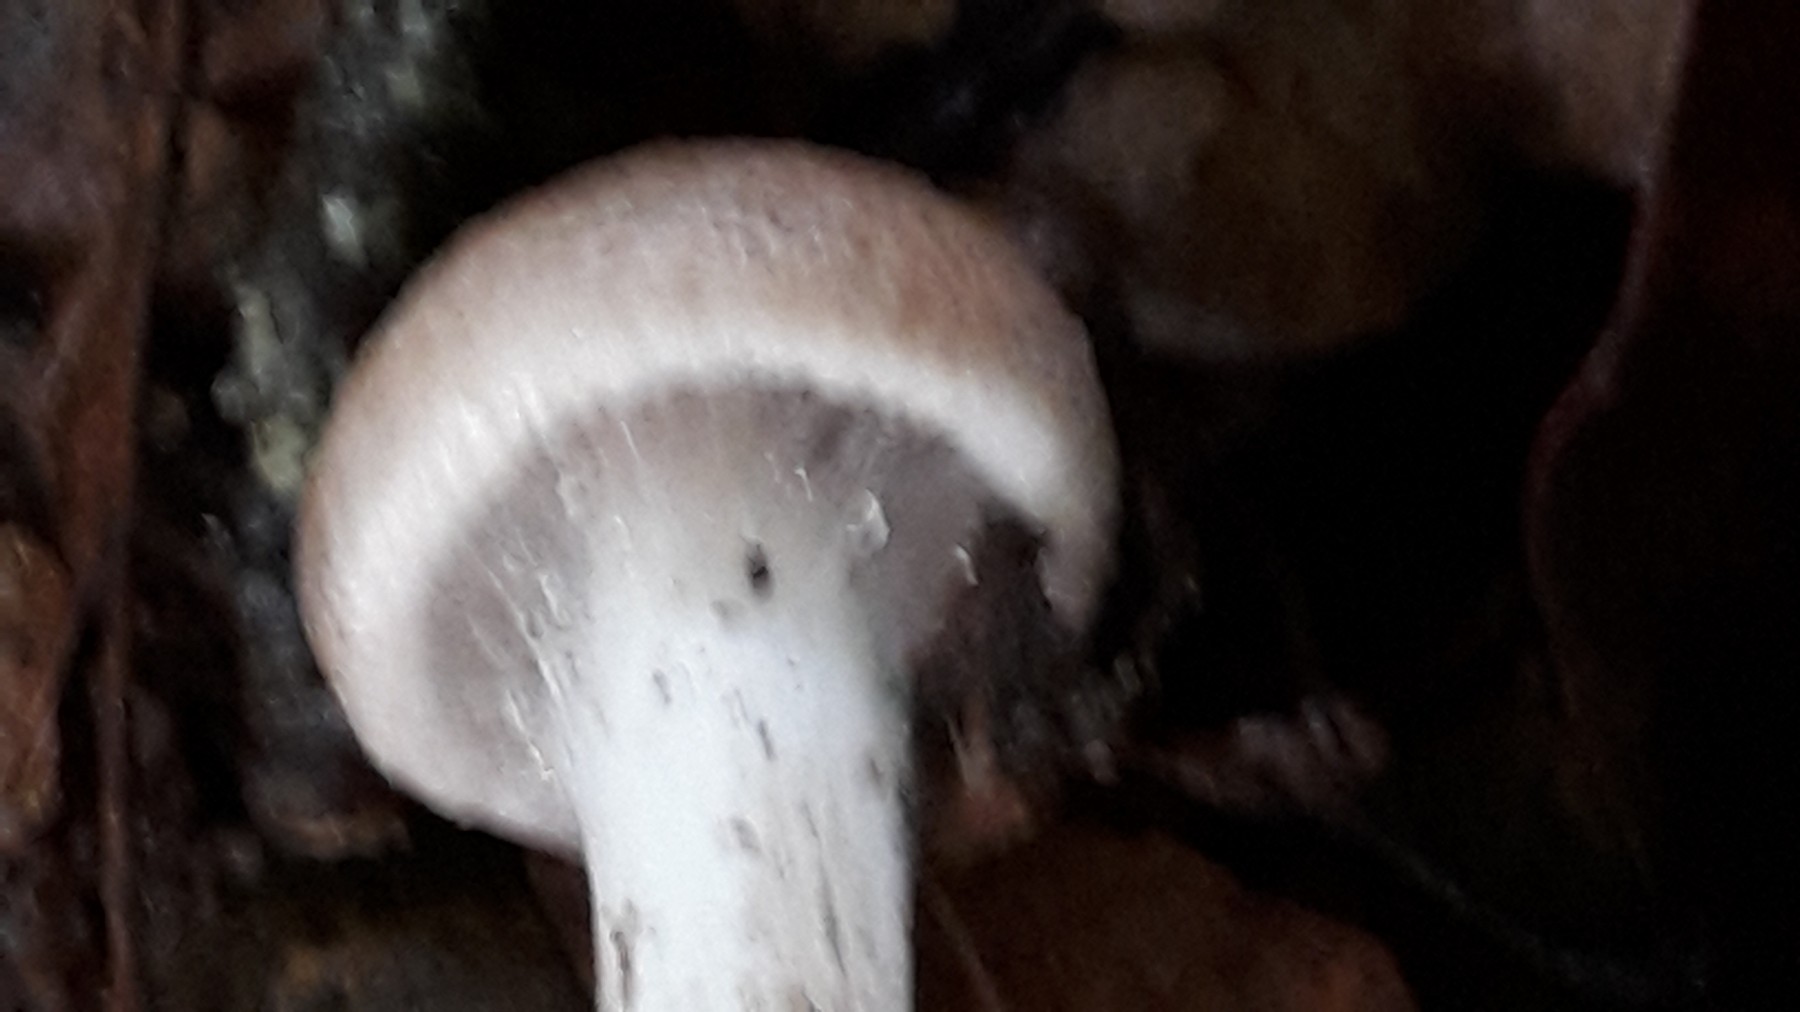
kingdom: Fungi
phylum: Basidiomycota
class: Agaricomycetes
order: Agaricales
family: Tricholomataceae
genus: Tricholoma
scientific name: Tricholoma argyraceum
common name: slør-ridderhat
